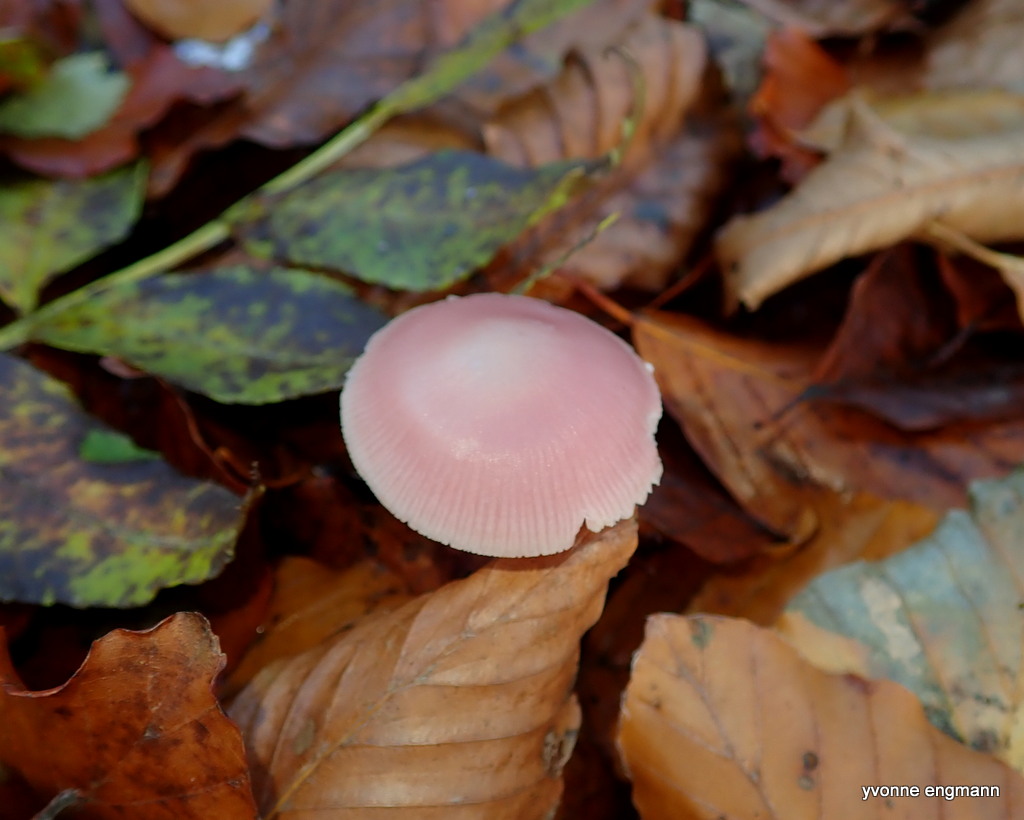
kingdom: Fungi
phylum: Basidiomycota
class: Agaricomycetes
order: Agaricales
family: Mycenaceae
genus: Mycena
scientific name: Mycena rosea
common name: rosa huesvamp
